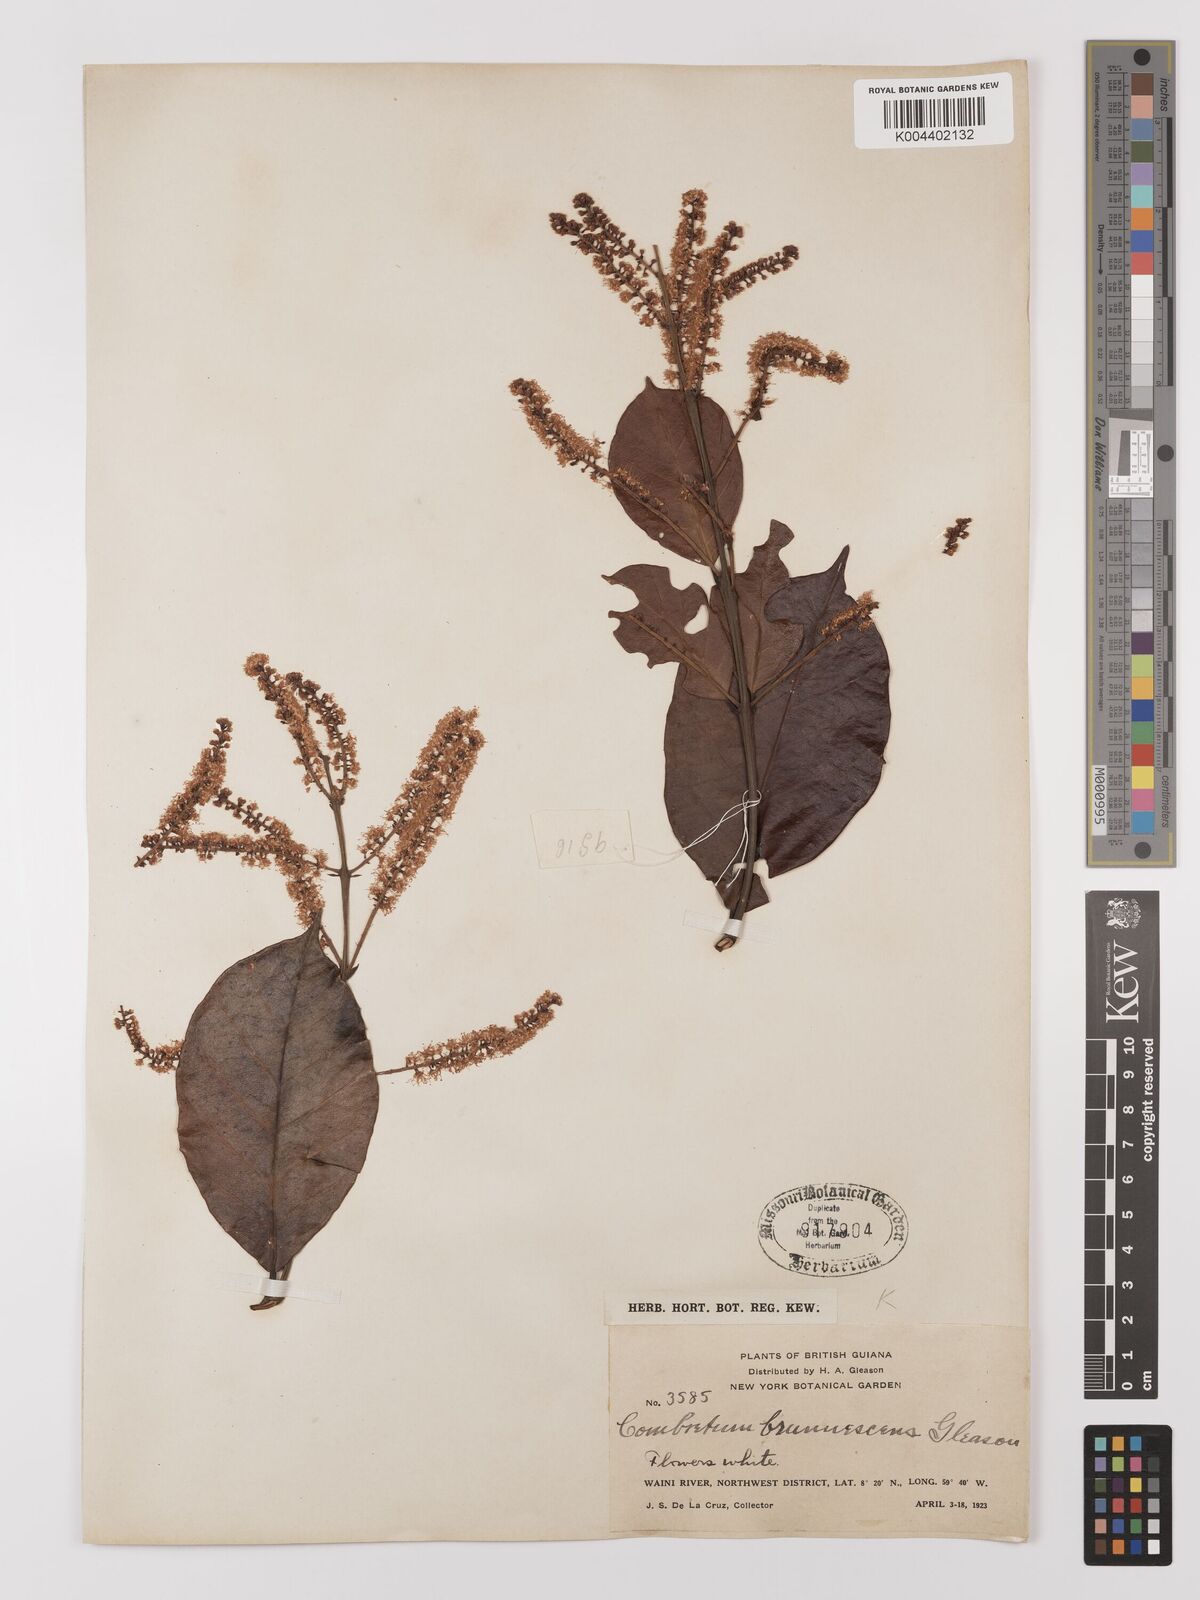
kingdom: Plantae
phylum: Tracheophyta
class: Magnoliopsida
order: Myrtales
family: Combretaceae
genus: Combretum
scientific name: Combretum
